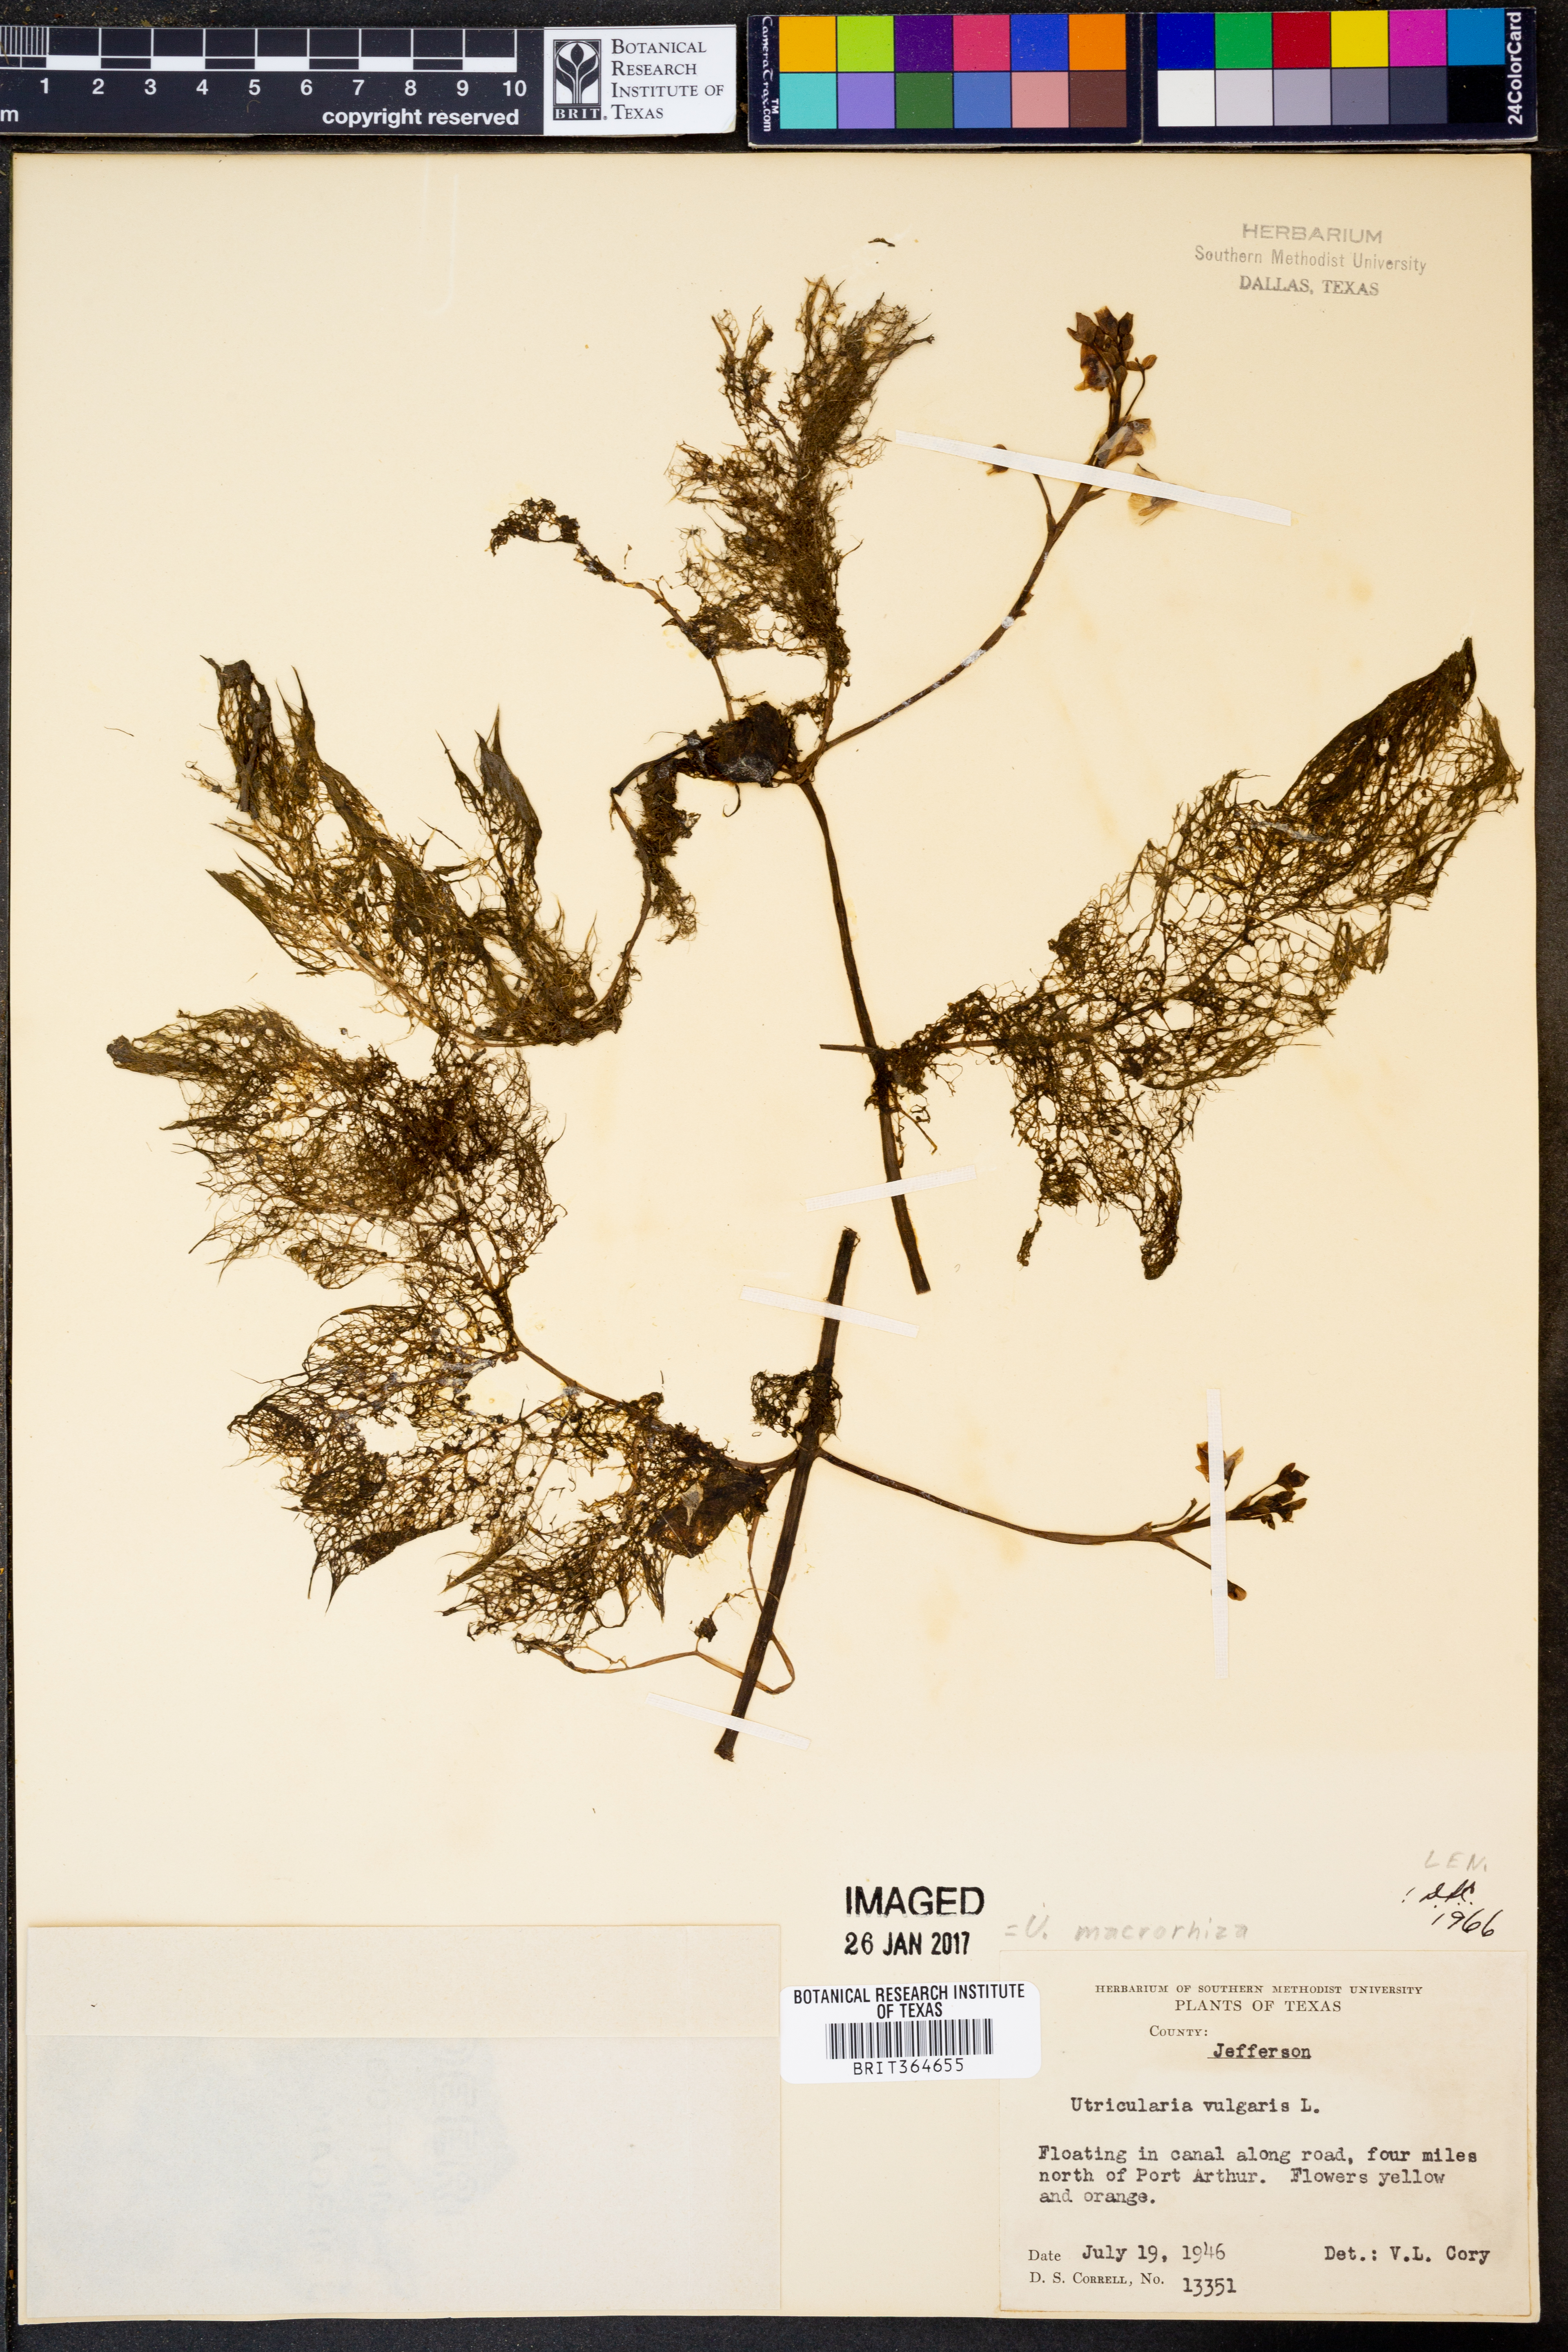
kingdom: Plantae
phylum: Tracheophyta
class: Magnoliopsida
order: Lamiales
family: Lentibulariaceae
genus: Utricularia
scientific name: Utricularia macrorhiza
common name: Common bladderwort
